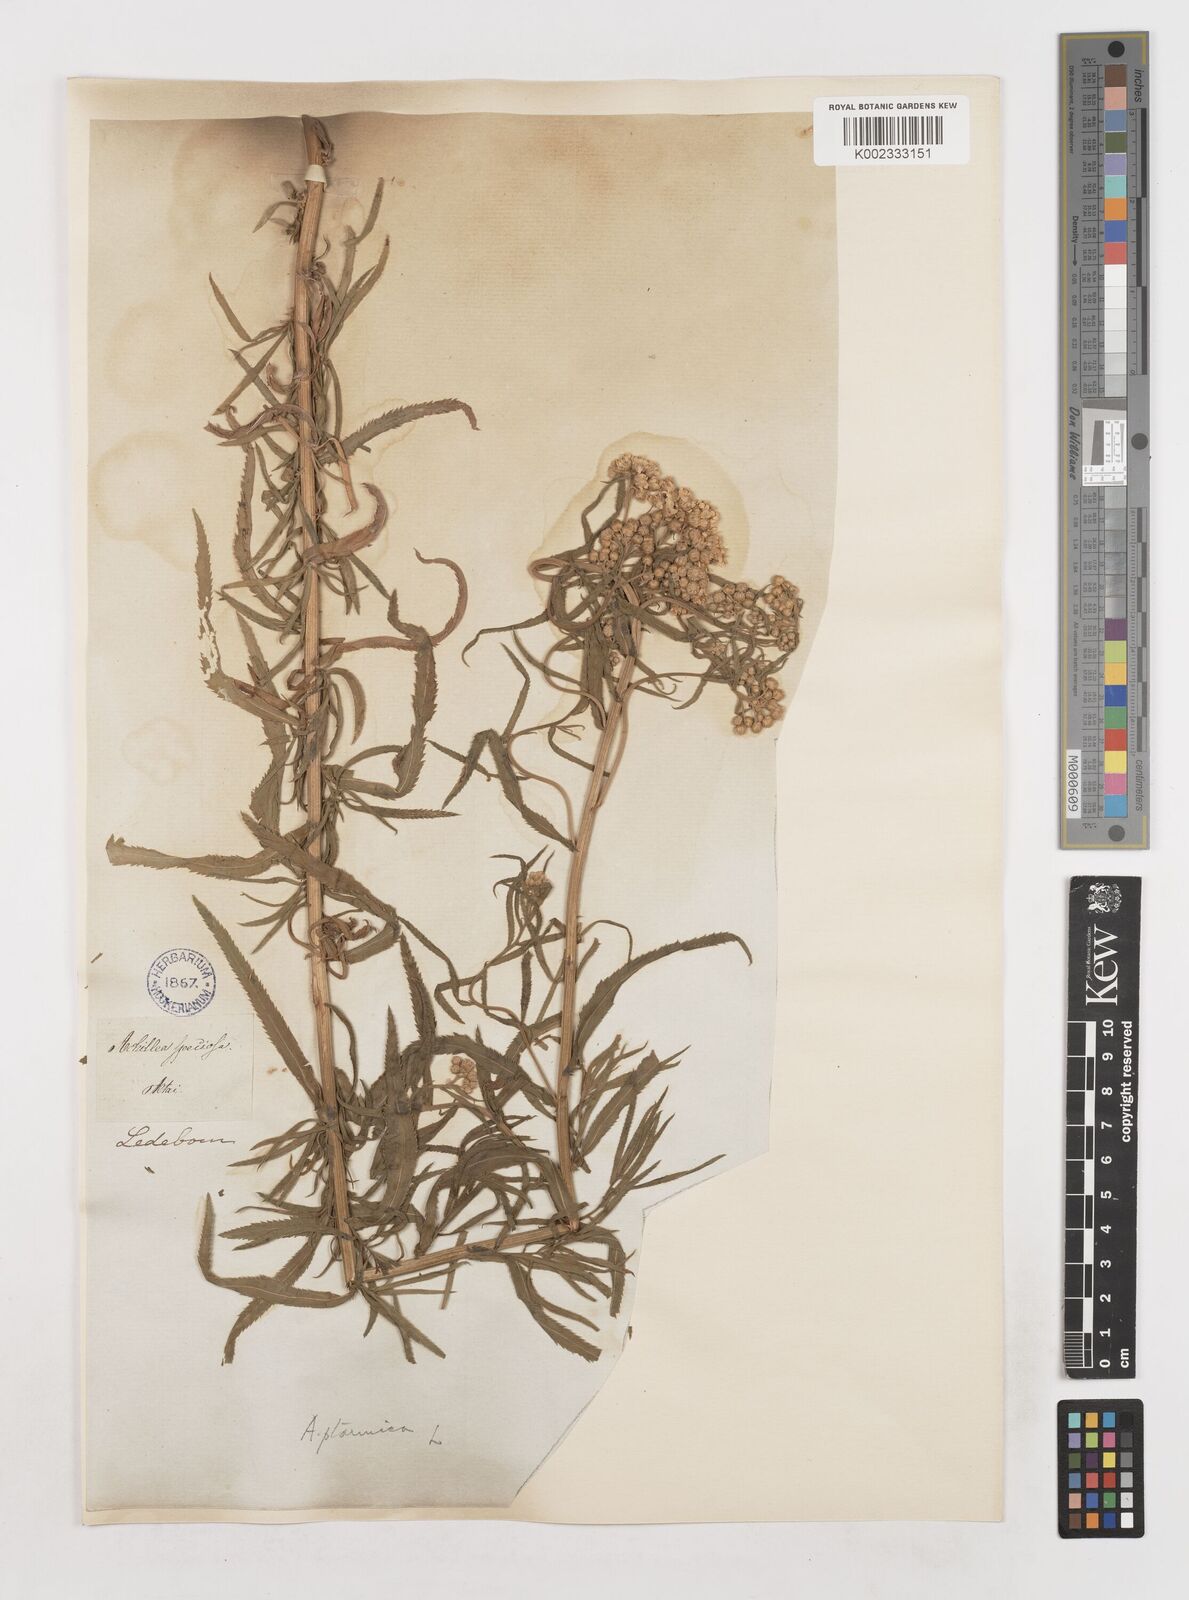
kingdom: Plantae
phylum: Tracheophyta
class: Magnoliopsida
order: Asterales
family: Asteraceae
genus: Achillea
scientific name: Achillea salicifolia
